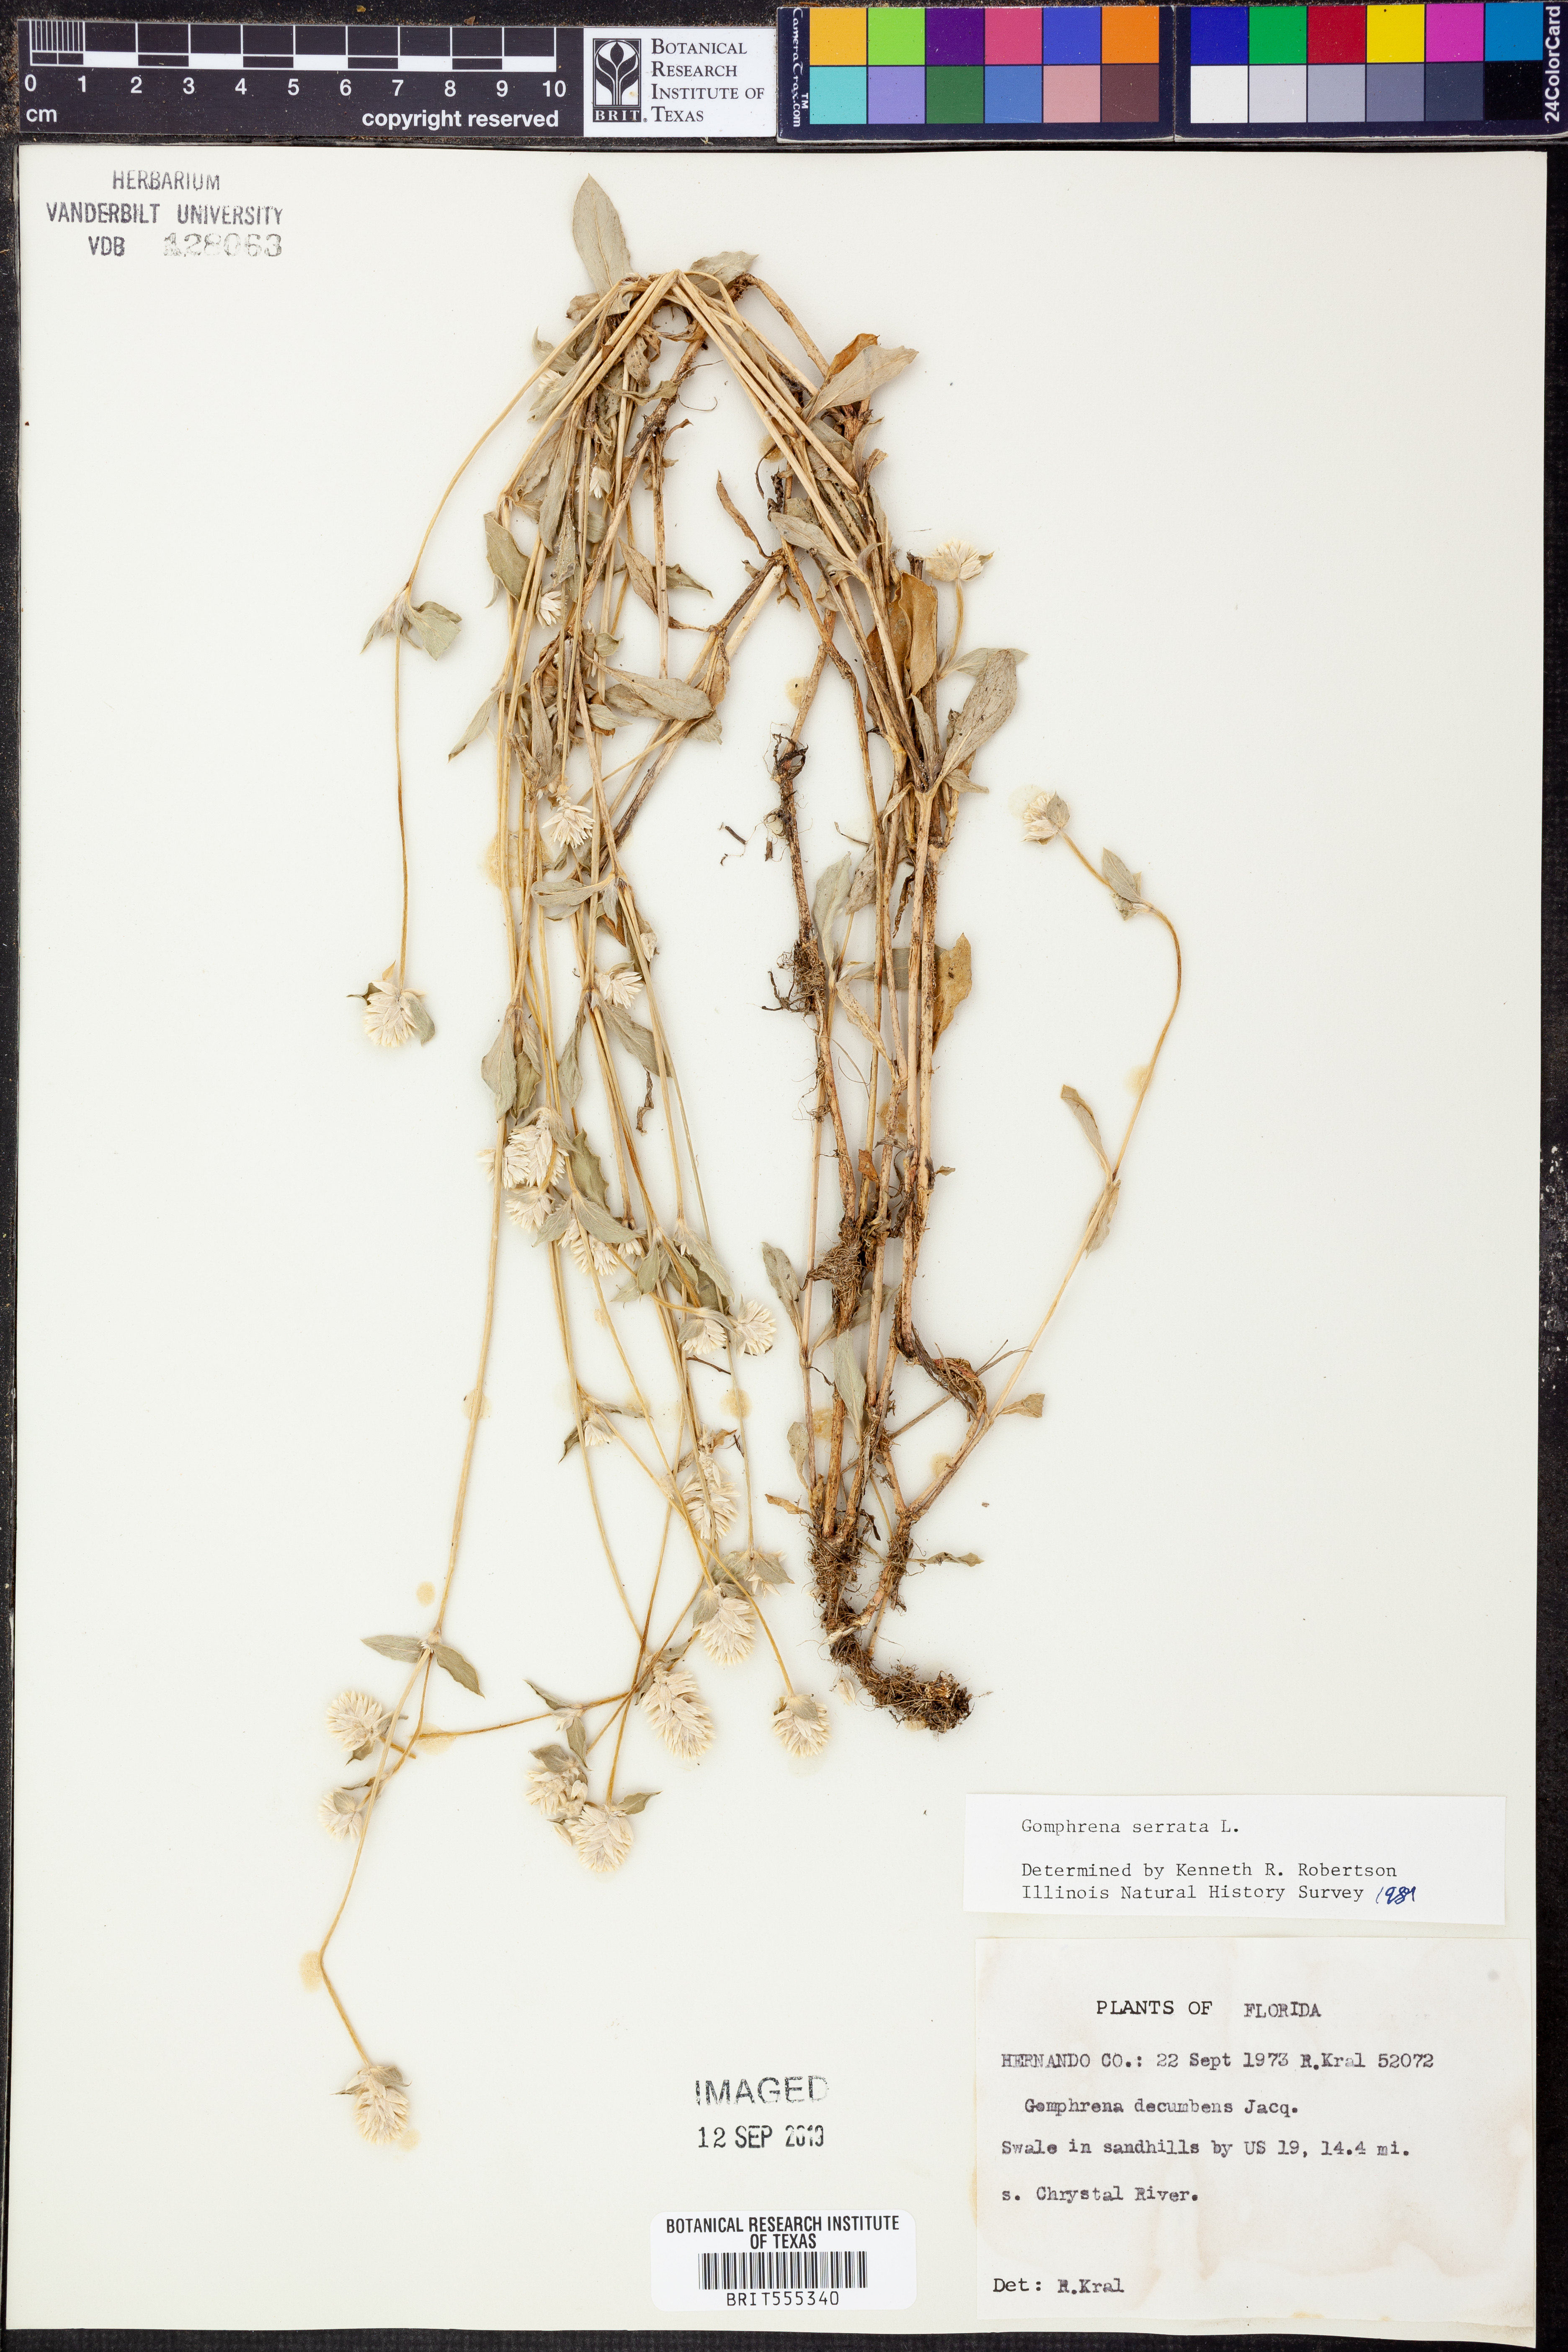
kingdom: Plantae
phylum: Tracheophyta
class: Magnoliopsida
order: Caryophyllales
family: Amaranthaceae
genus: Gomphrena
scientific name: Gomphrena serrata
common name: Arrasa con todo
